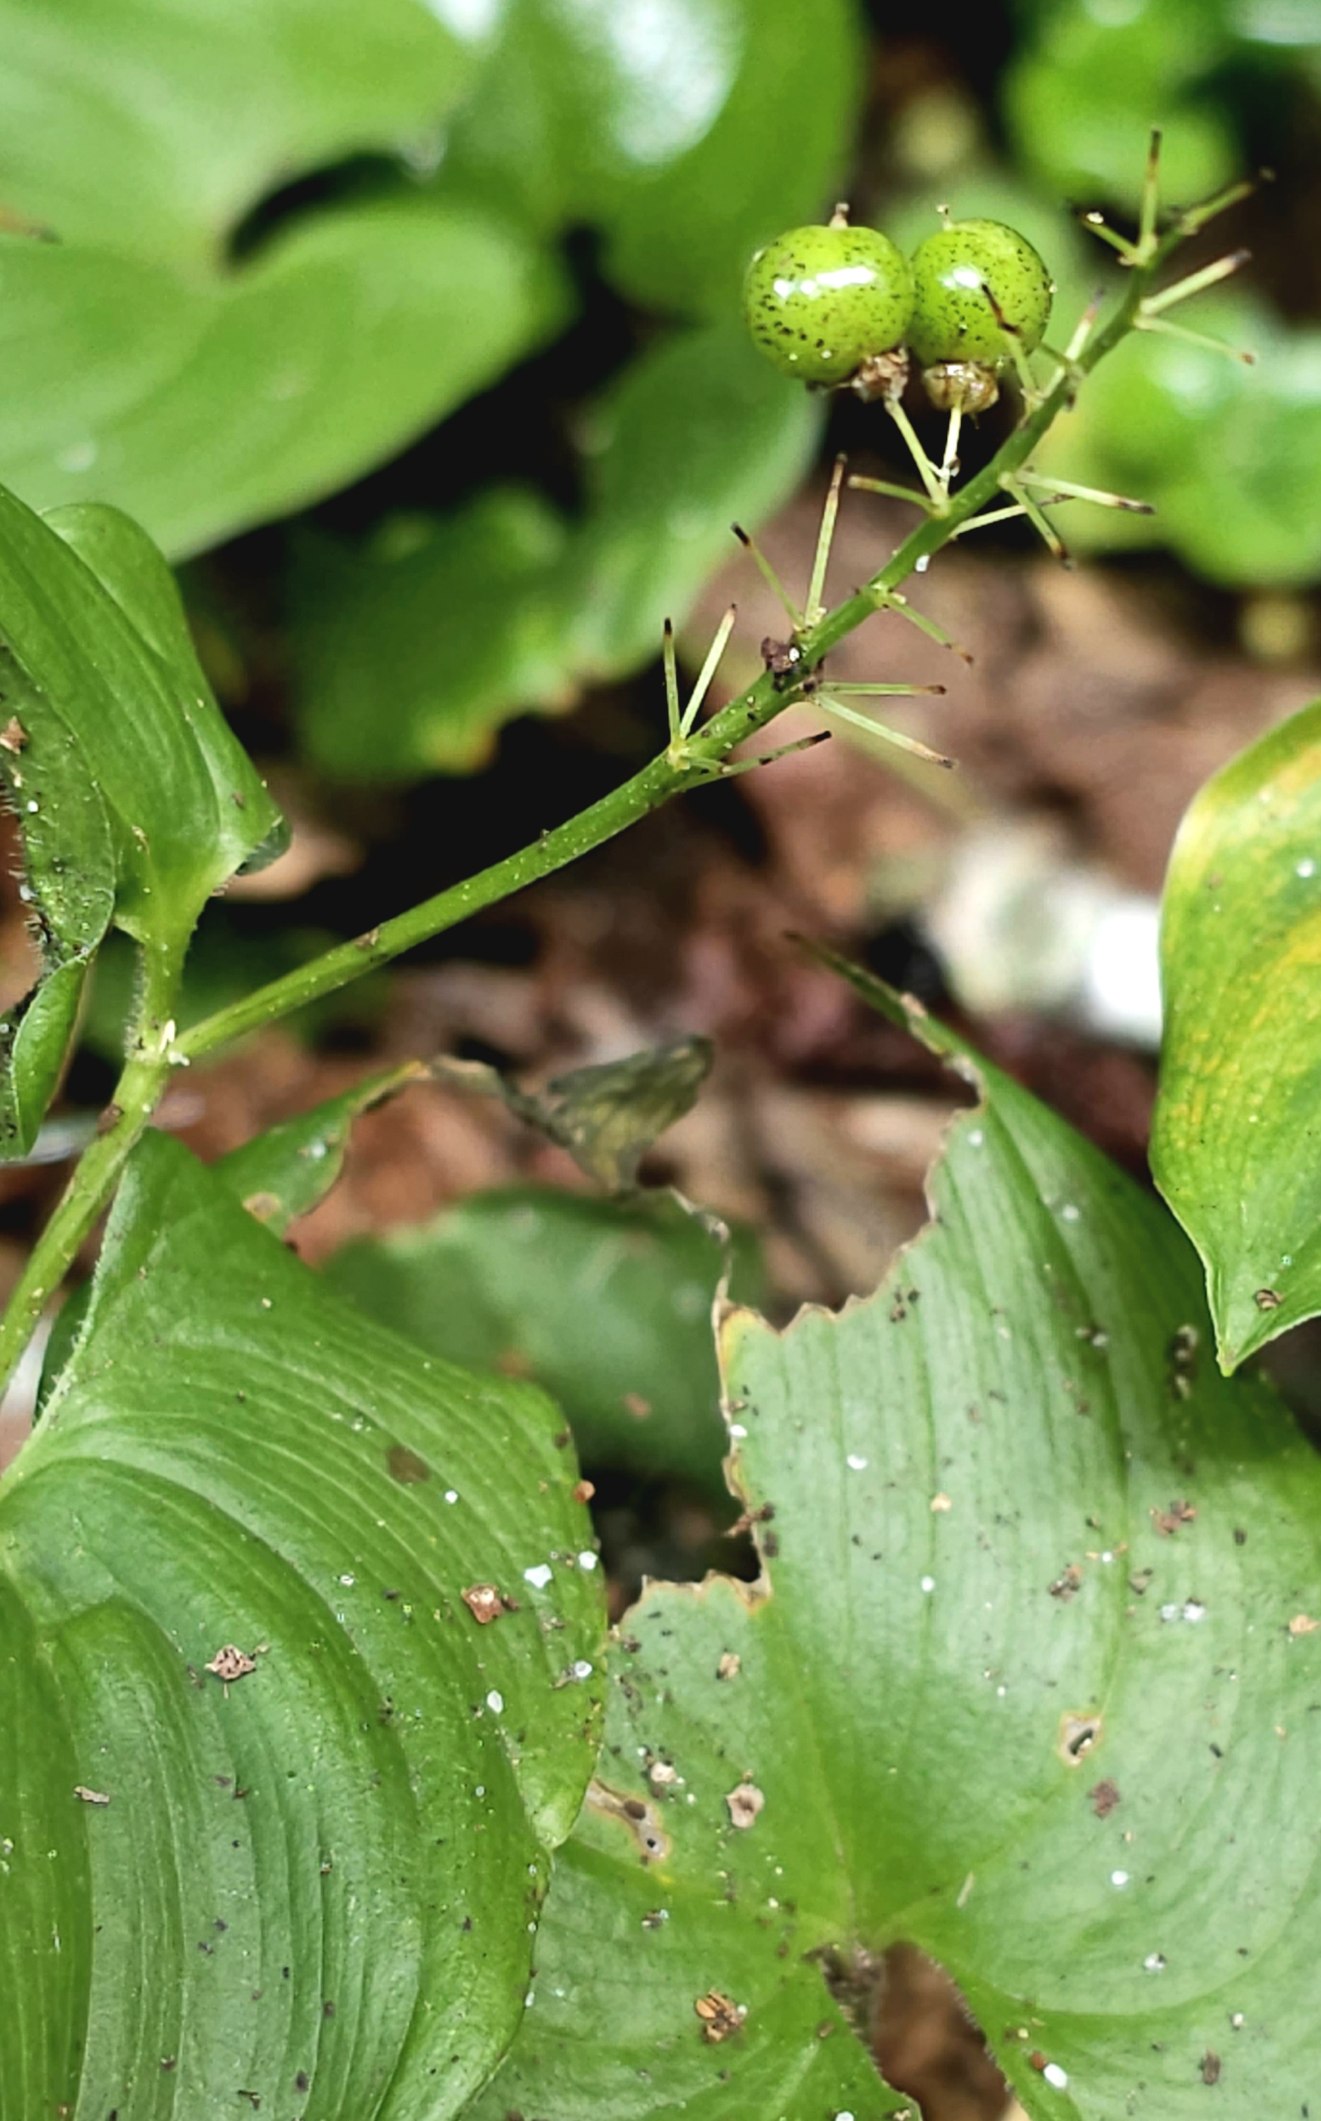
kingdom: Plantae
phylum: Tracheophyta
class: Liliopsida
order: Asparagales
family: Asparagaceae
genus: Maianthemum
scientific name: Maianthemum bifolium
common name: Majblomst
